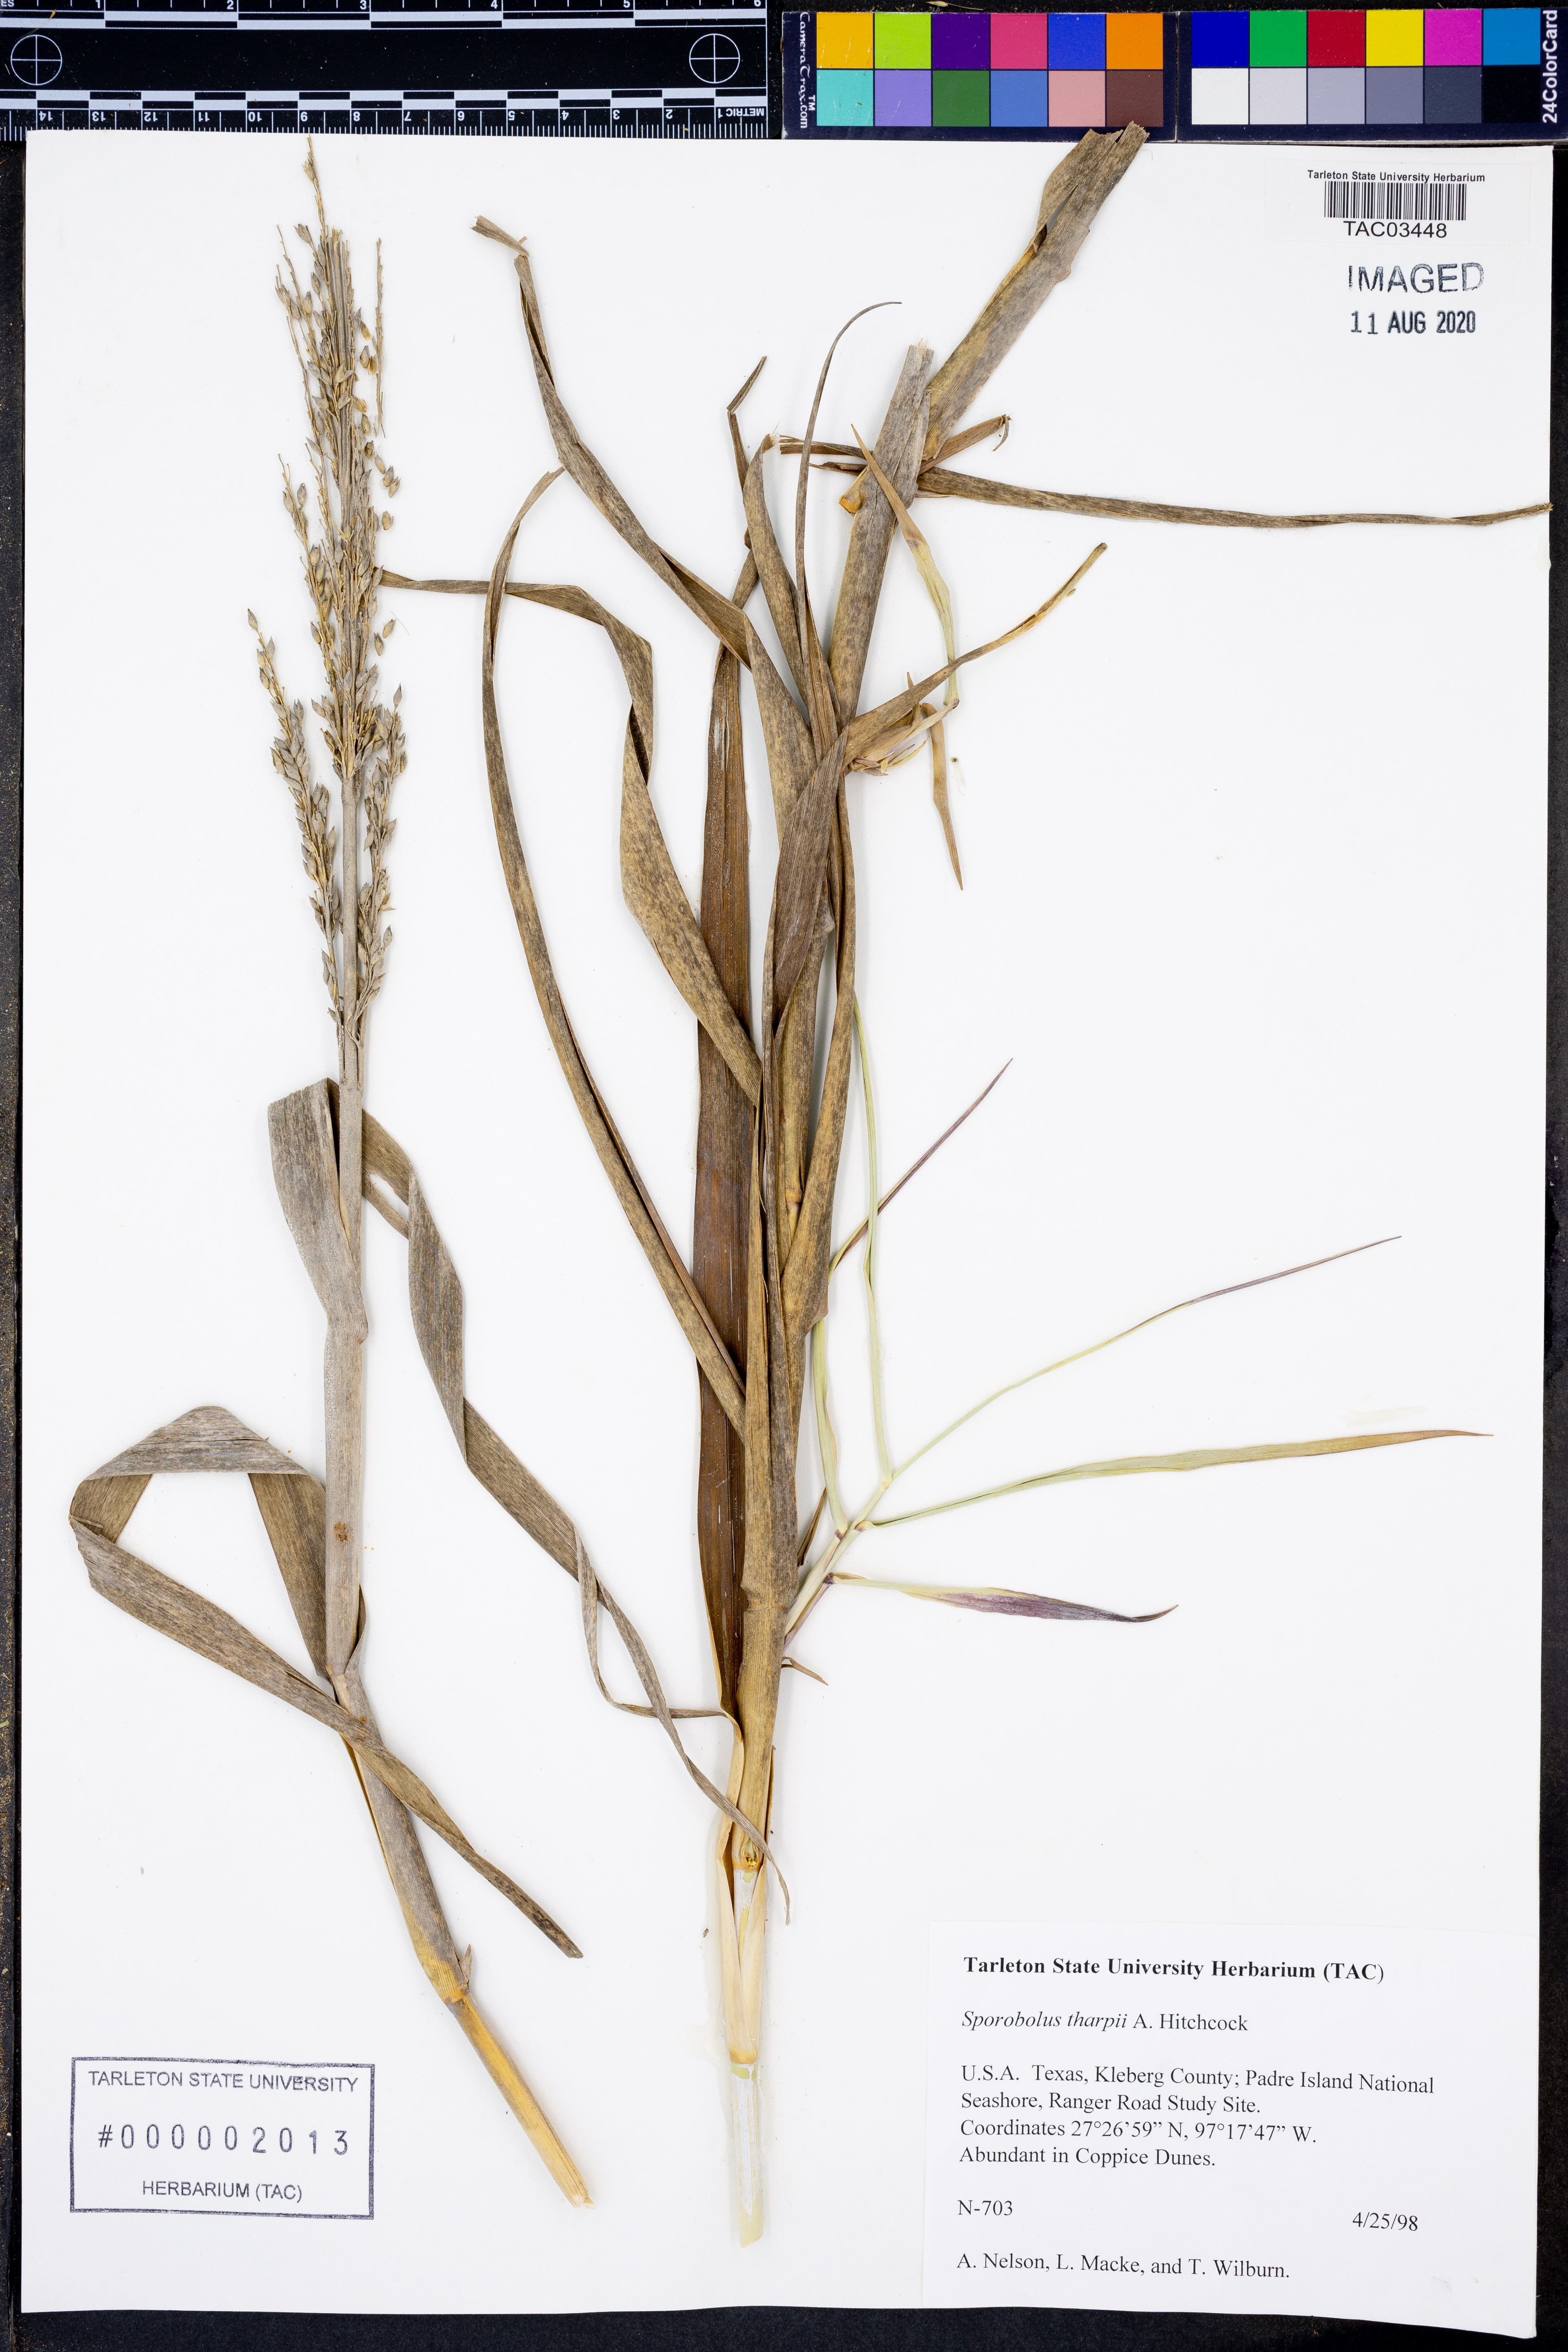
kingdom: Plantae
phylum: Tracheophyta
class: Liliopsida
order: Poales
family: Poaceae
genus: Sporobolus
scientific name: Sporobolus airoides
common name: Alkali sacaton
